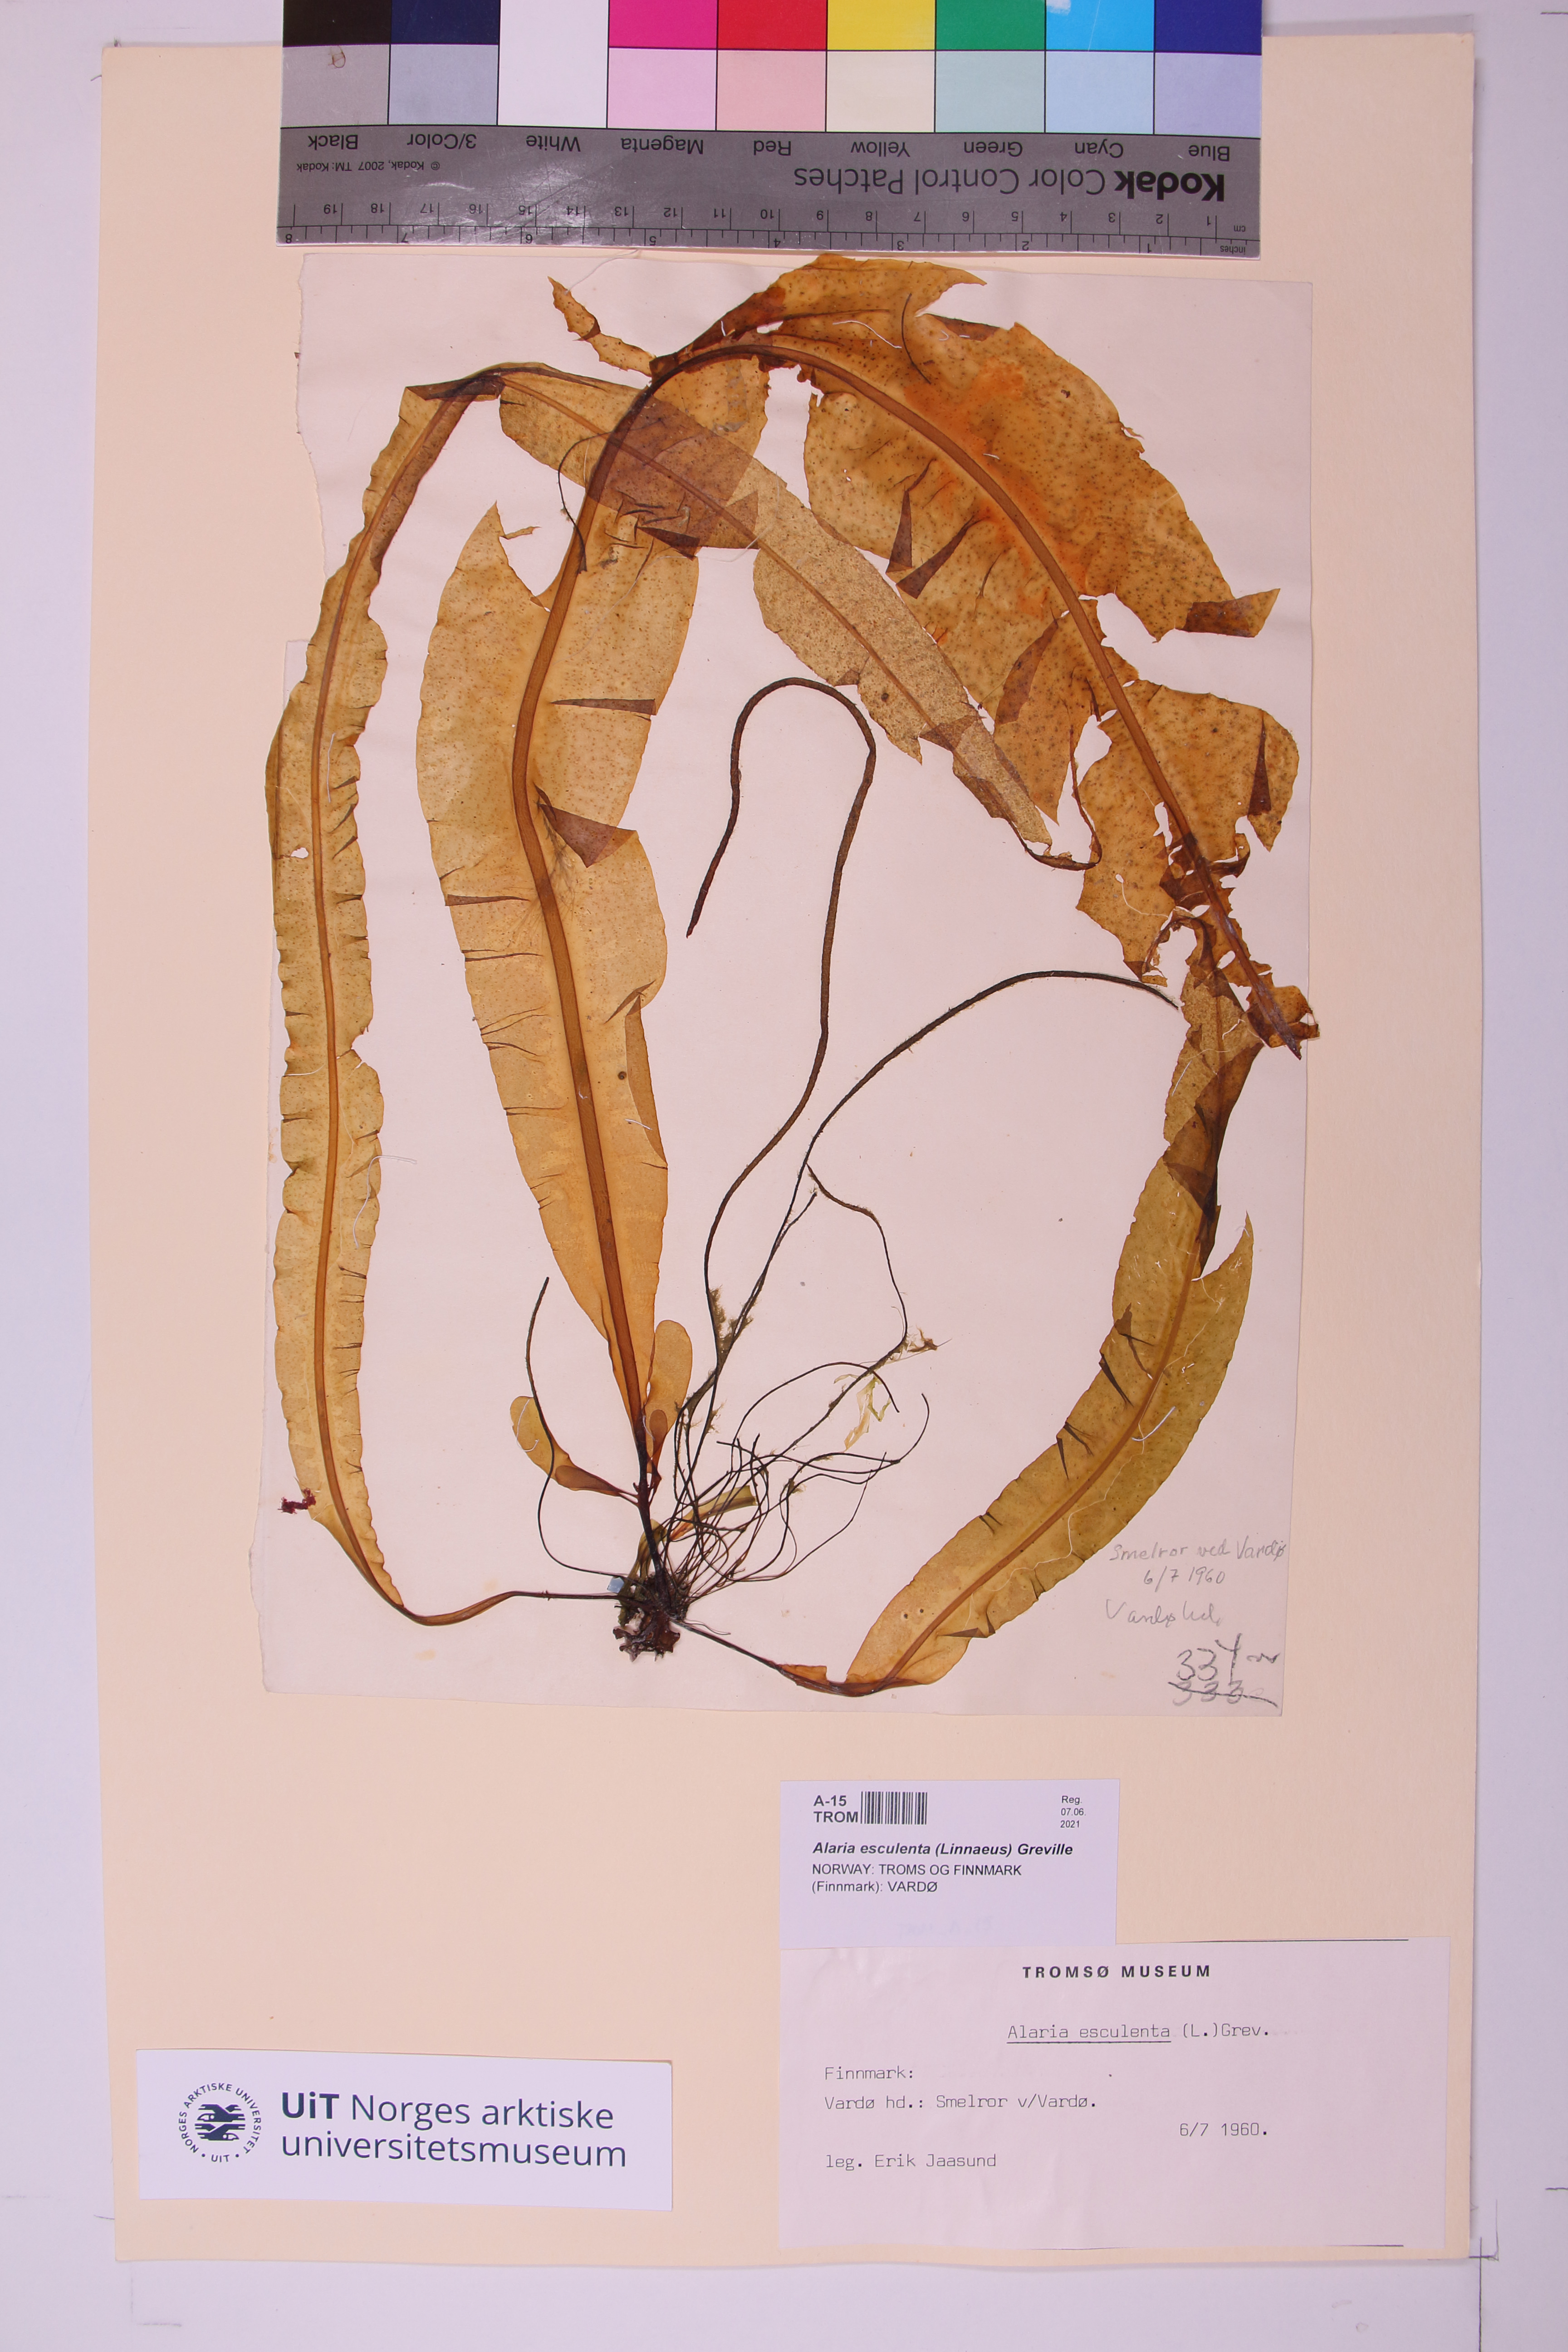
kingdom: Chromista
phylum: Ochrophyta
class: Phaeophyceae
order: Laminariales
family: Alariaceae
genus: Alaria
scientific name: Alaria esculenta
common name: Dabberlocks
